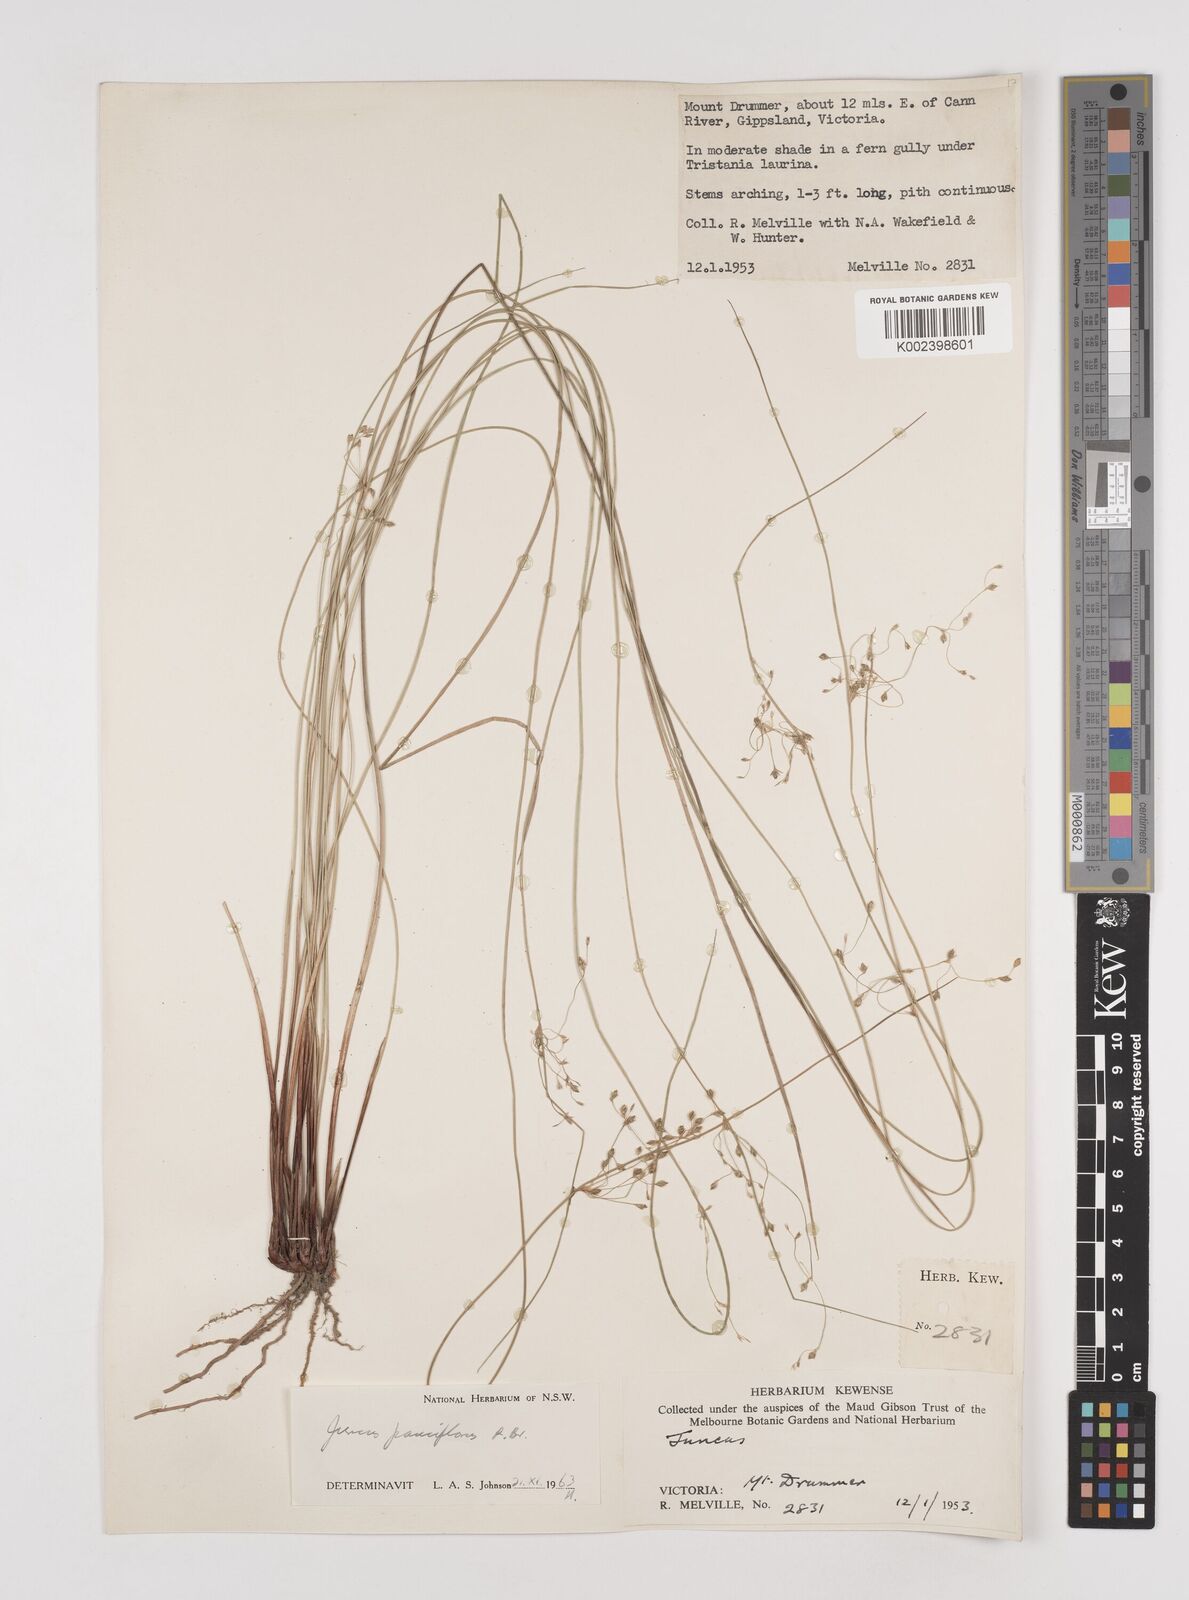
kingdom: Plantae
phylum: Tracheophyta
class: Liliopsida
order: Poales
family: Juncaceae
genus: Juncus
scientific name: Juncus pauciflorus
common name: Loose-flowered rush
